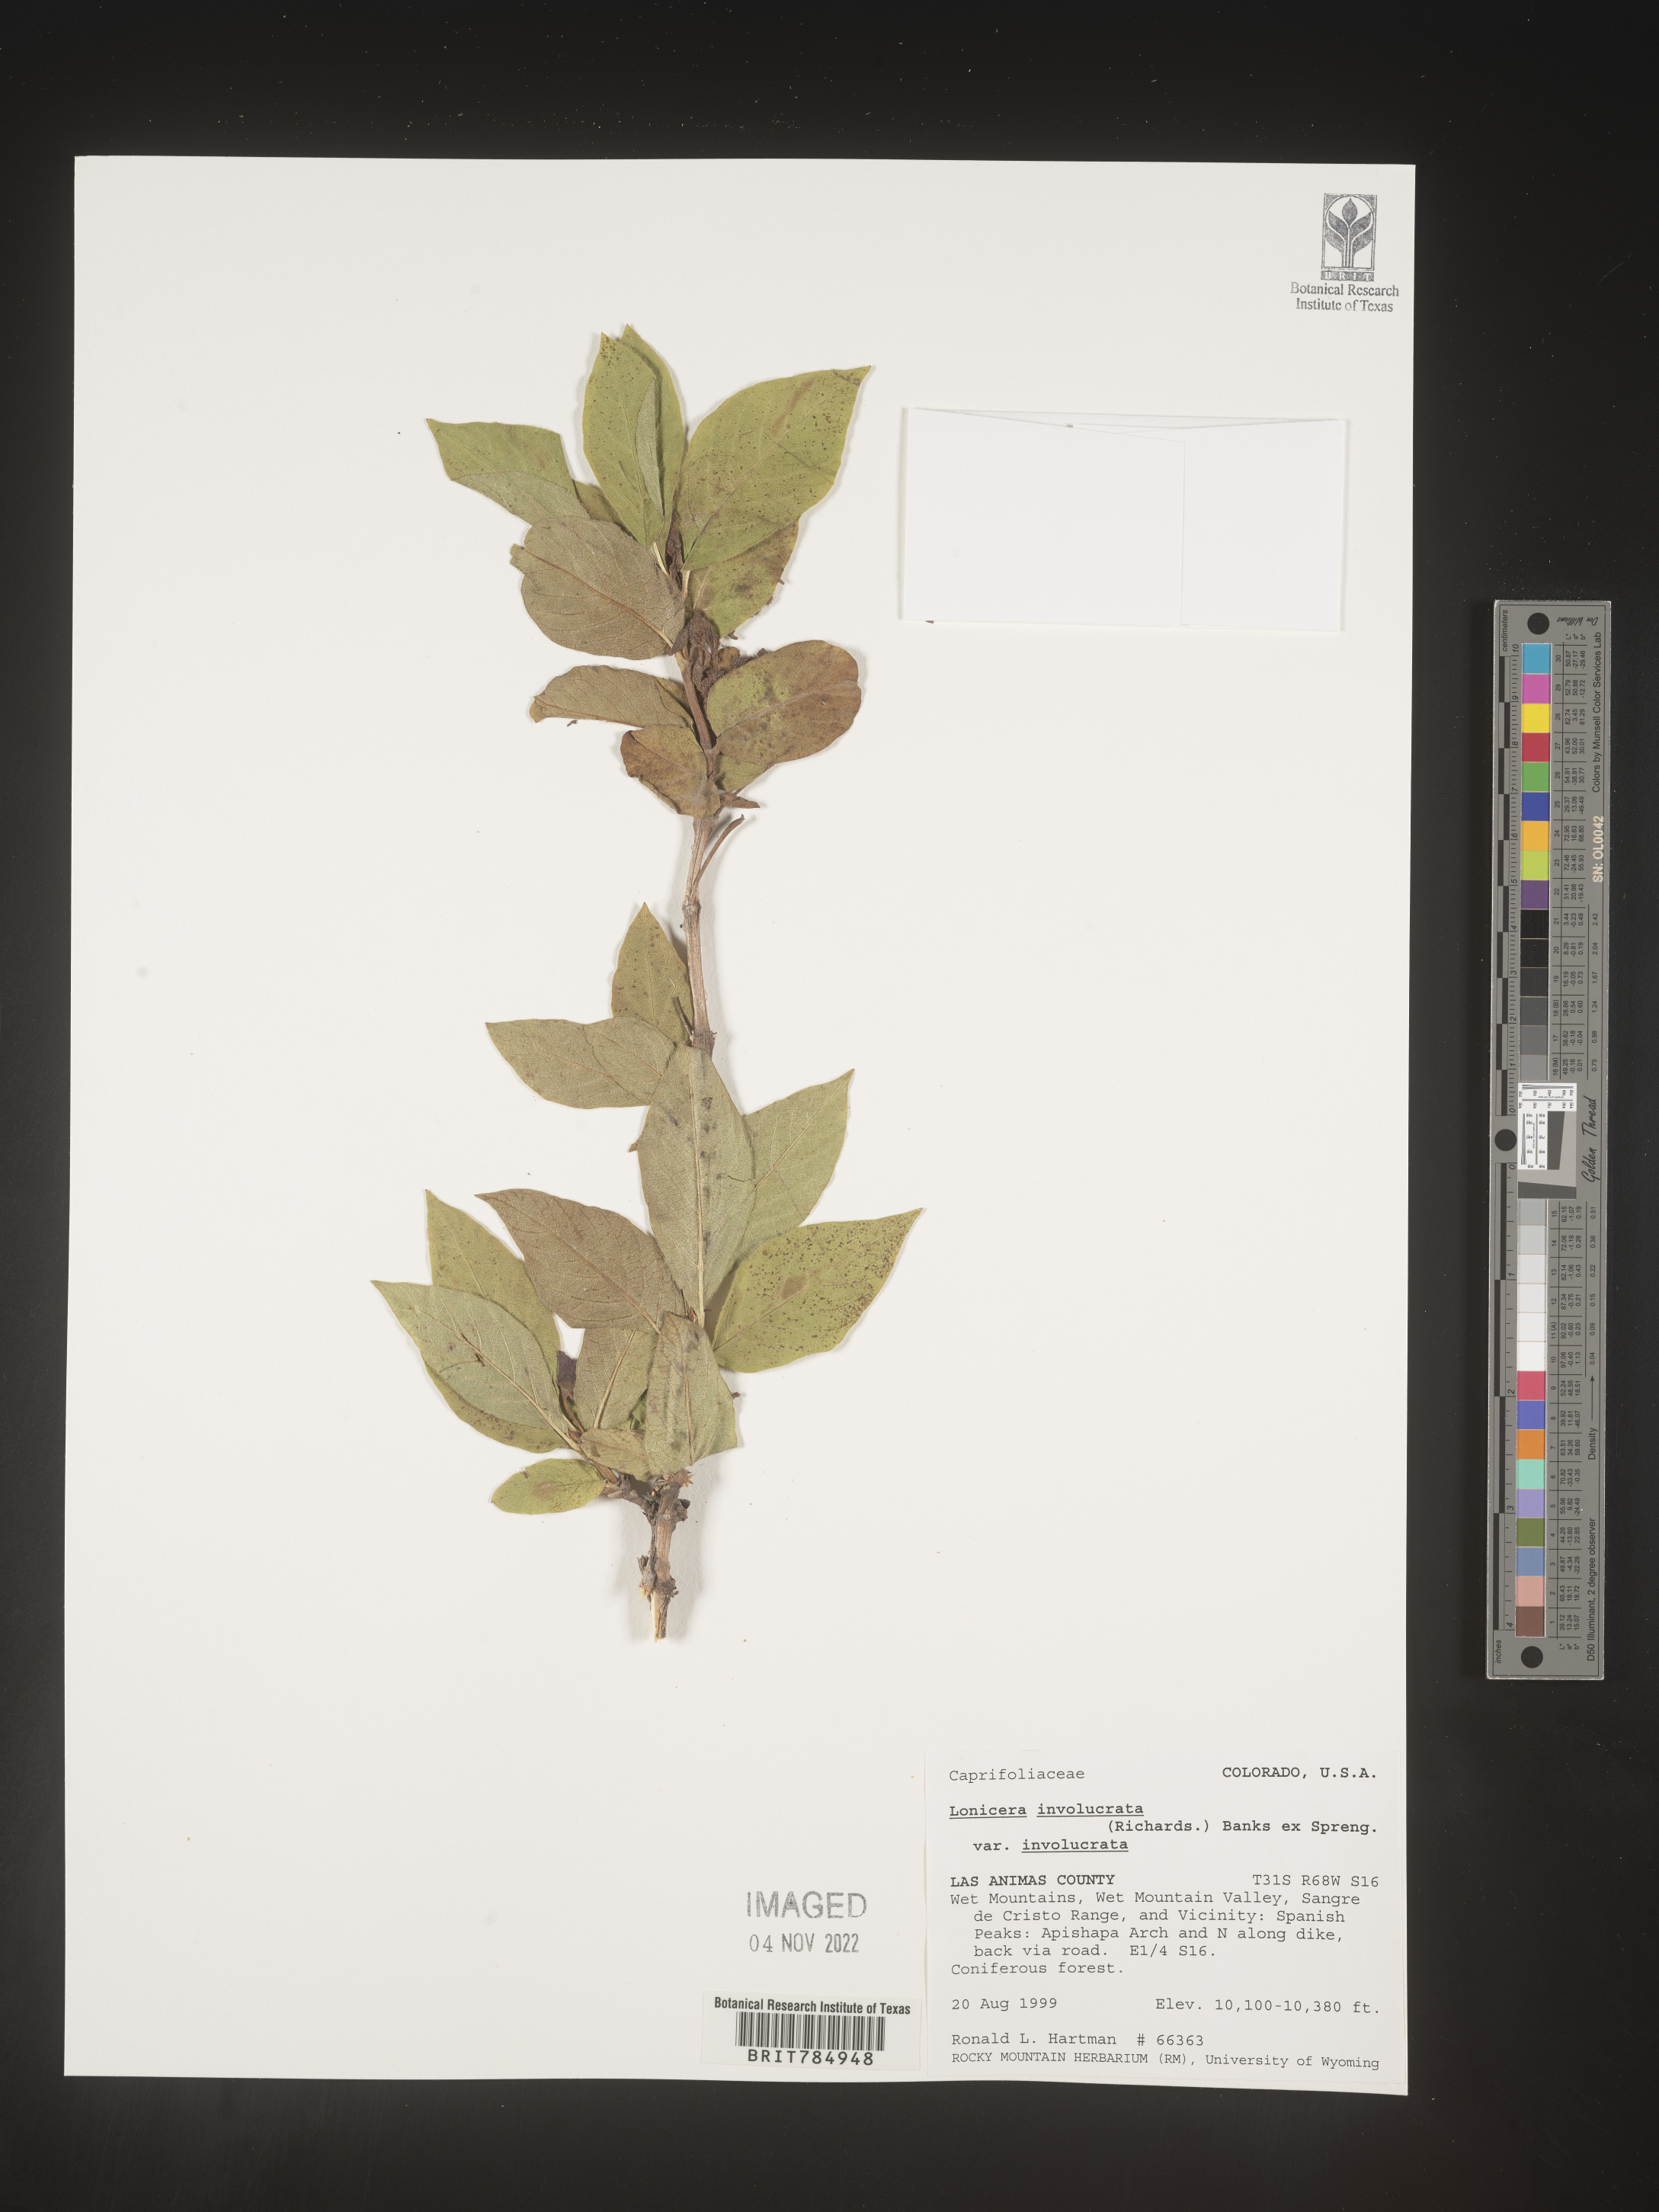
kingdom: Plantae
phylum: Tracheophyta
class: Magnoliopsida
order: Dipsacales
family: Caprifoliaceae
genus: Lonicera
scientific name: Lonicera involucrata
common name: Californian honeysuckle
